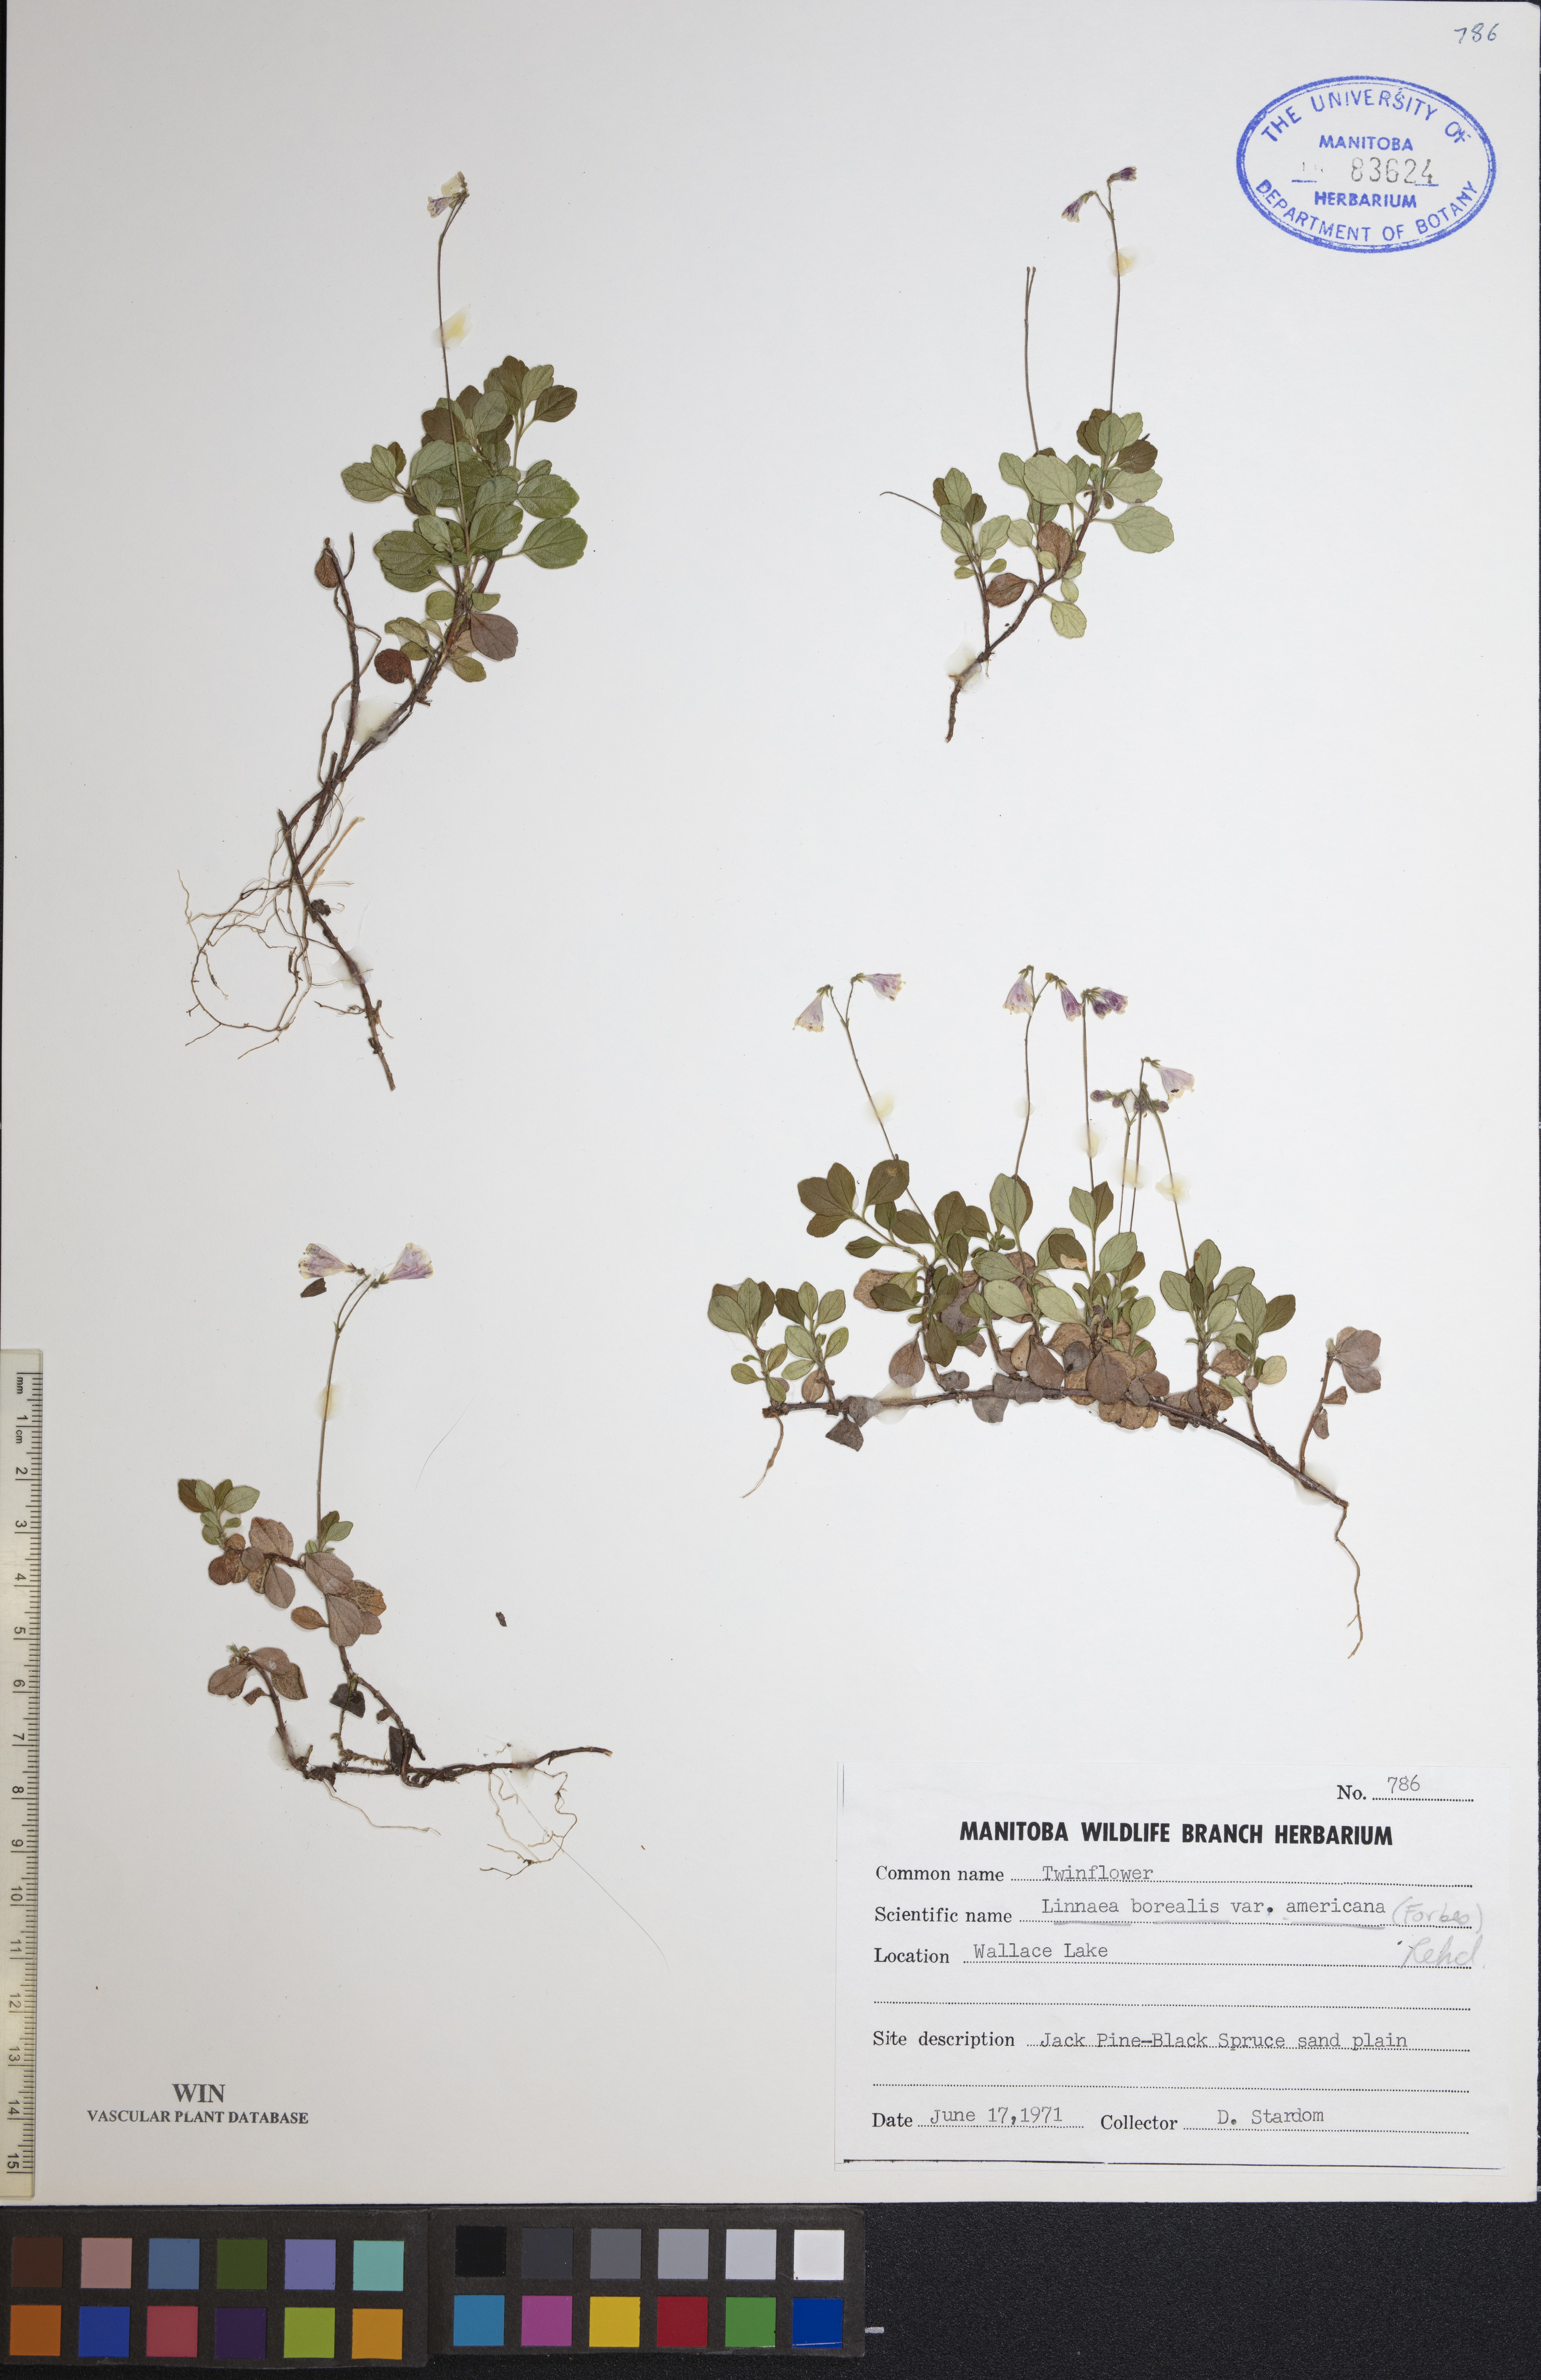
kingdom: Plantae
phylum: Tracheophyta
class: Magnoliopsida
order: Dipsacales
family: Caprifoliaceae
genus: Linnaea
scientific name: Linnaea borealis
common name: Twinflower
